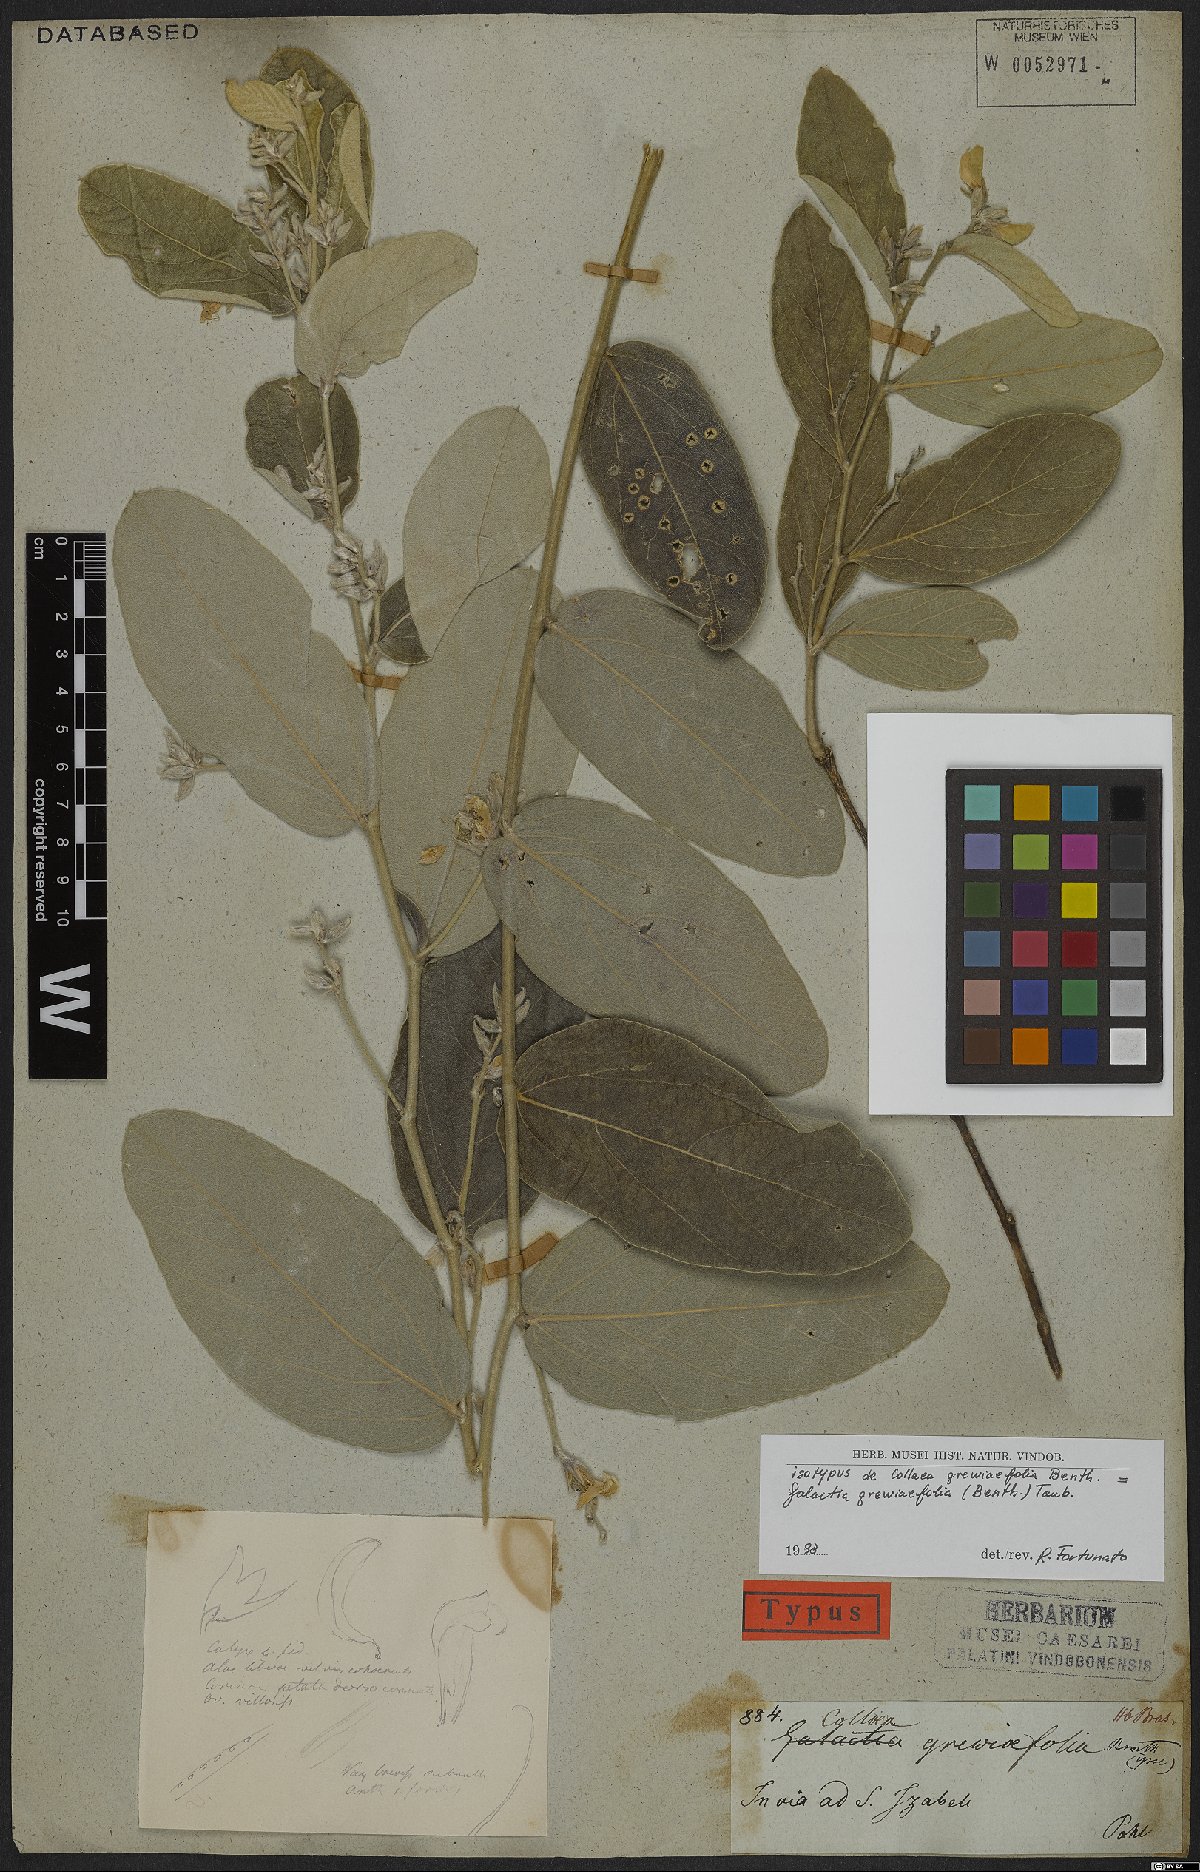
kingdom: Plantae
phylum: Tracheophyta
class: Magnoliopsida
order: Fabales
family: Fabaceae
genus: Cerradicola
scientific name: Cerradicola grewiifolia
